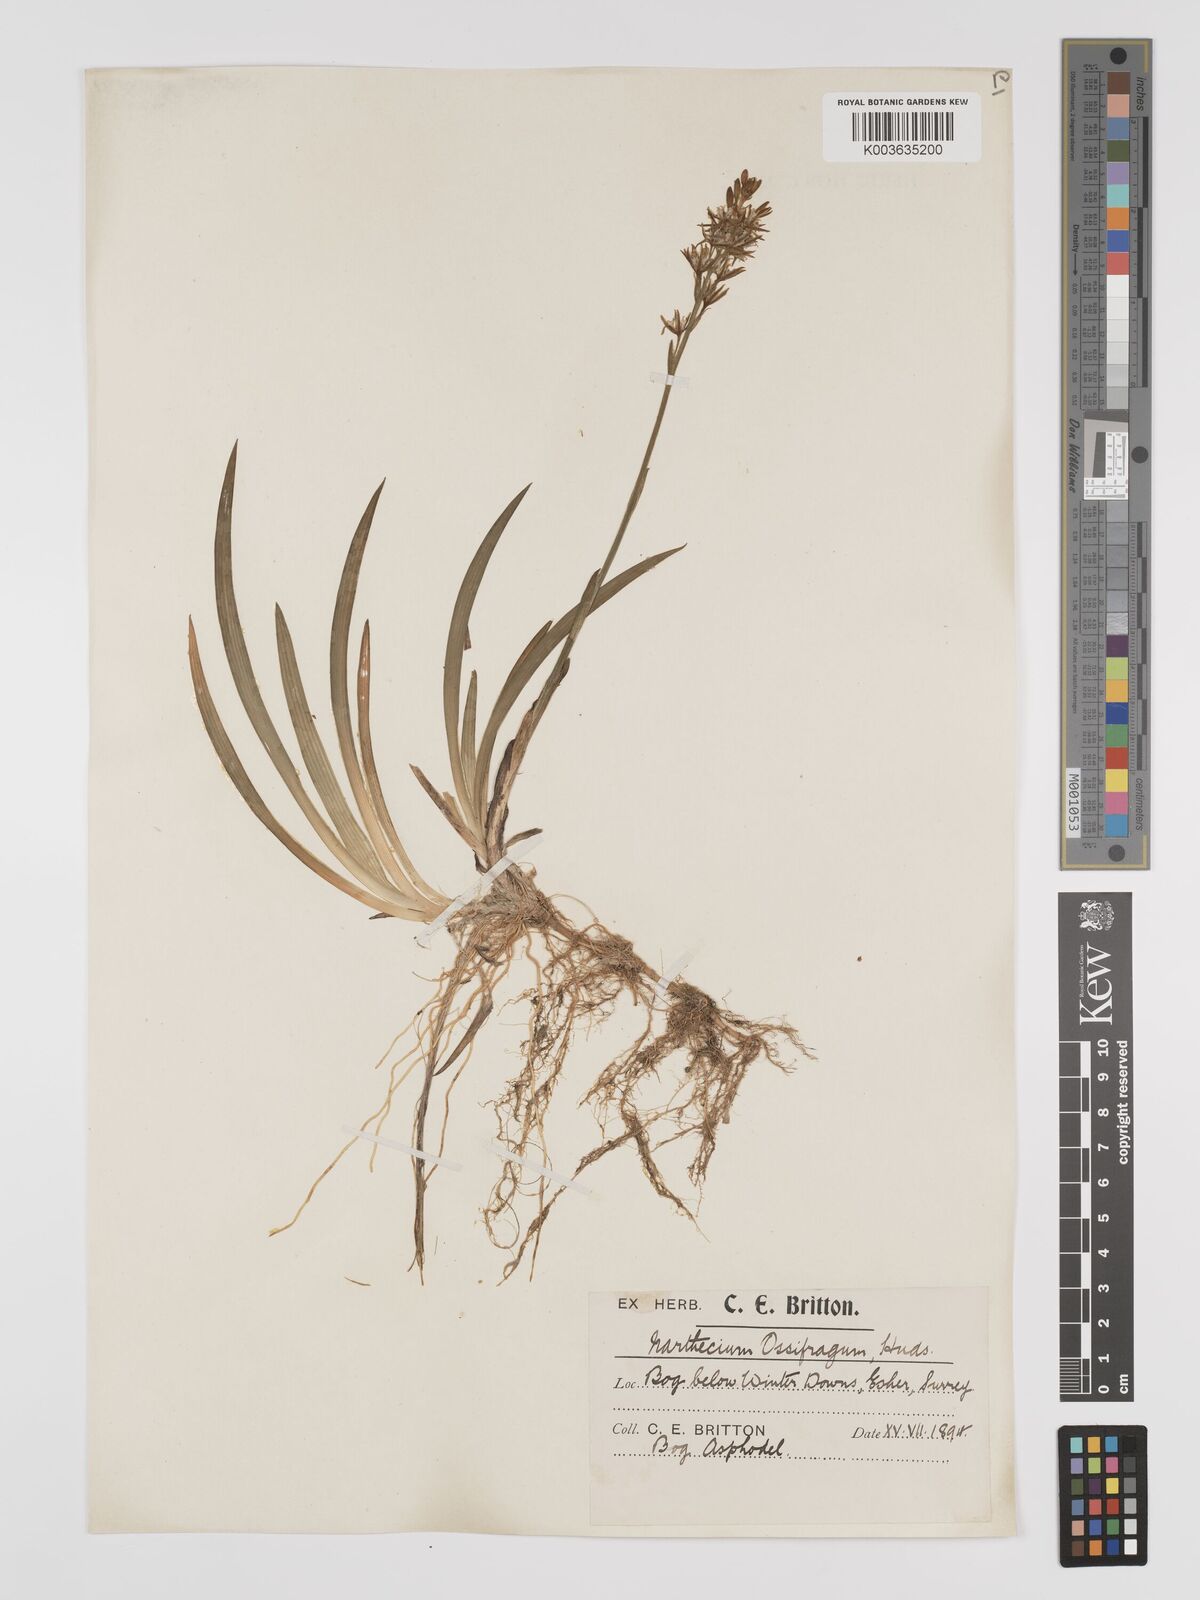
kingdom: Plantae
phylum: Tracheophyta
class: Liliopsida
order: Dioscoreales
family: Nartheciaceae
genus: Narthecium
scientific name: Narthecium
